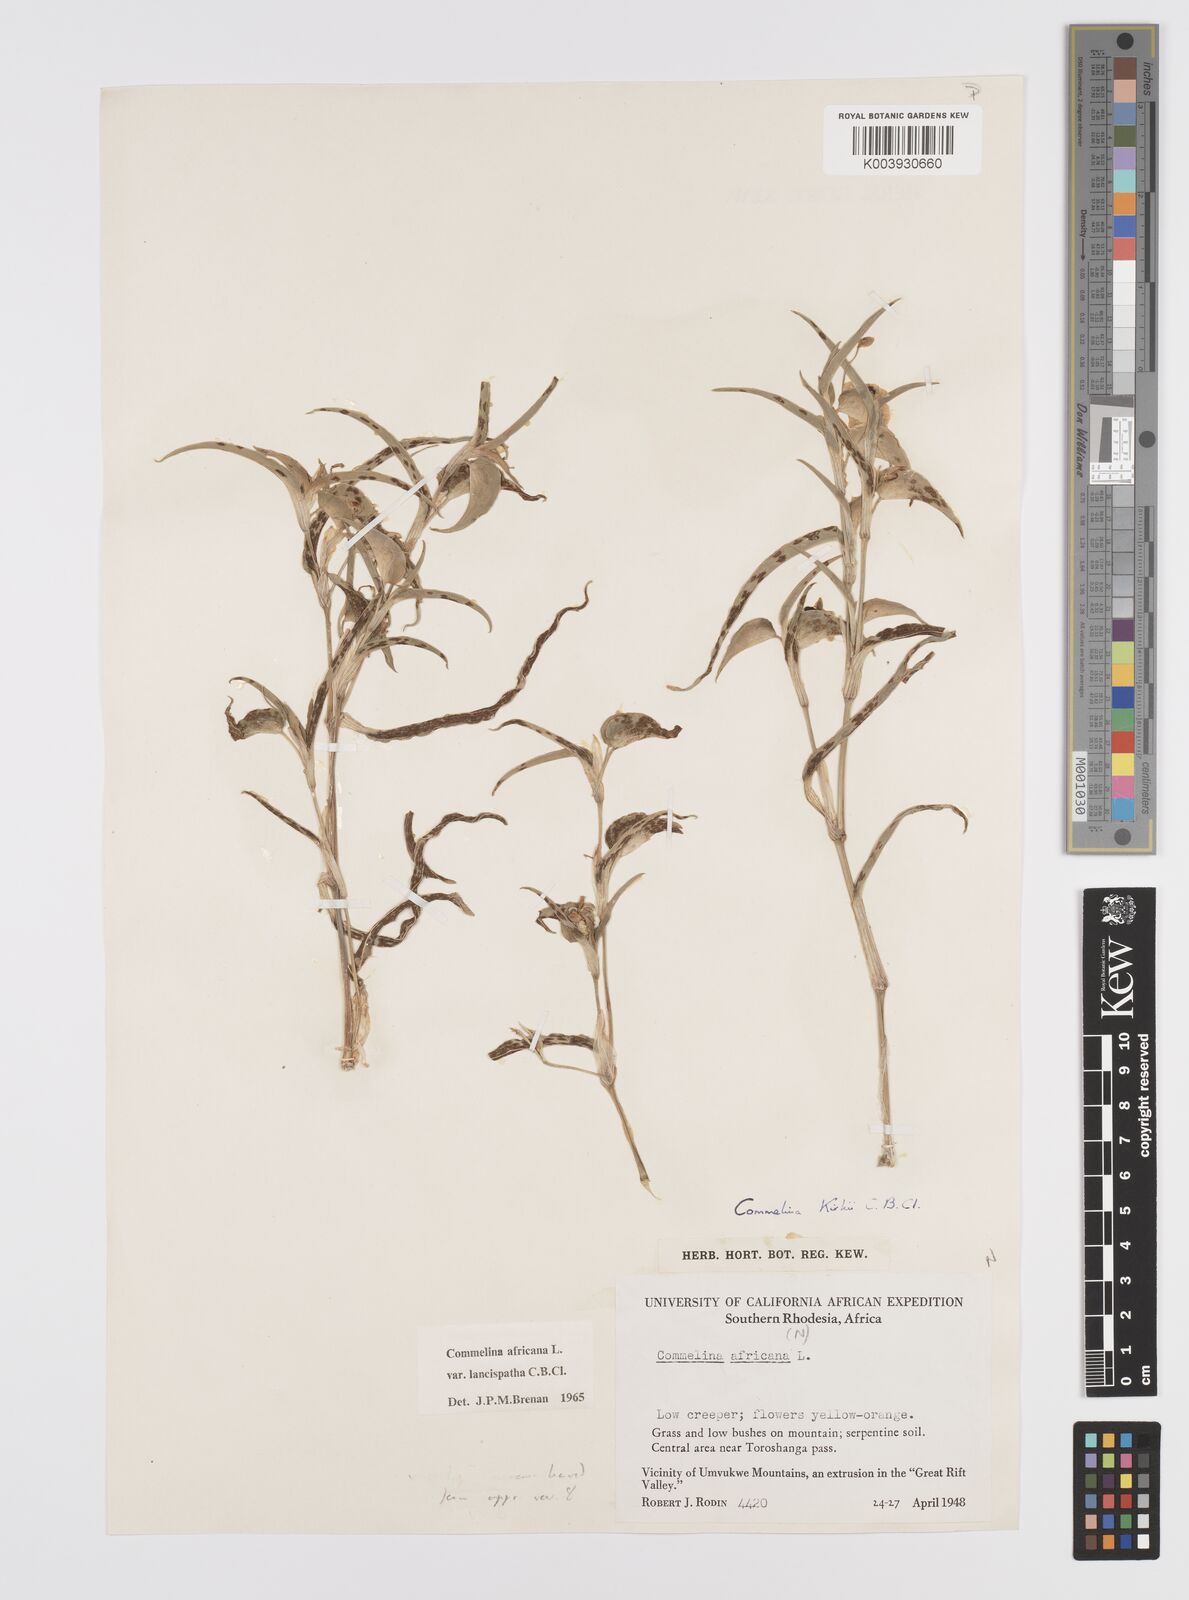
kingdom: Plantae
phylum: Tracheophyta
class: Liliopsida
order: Commelinales
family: Commelinaceae
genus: Commelina
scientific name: Commelina africana
